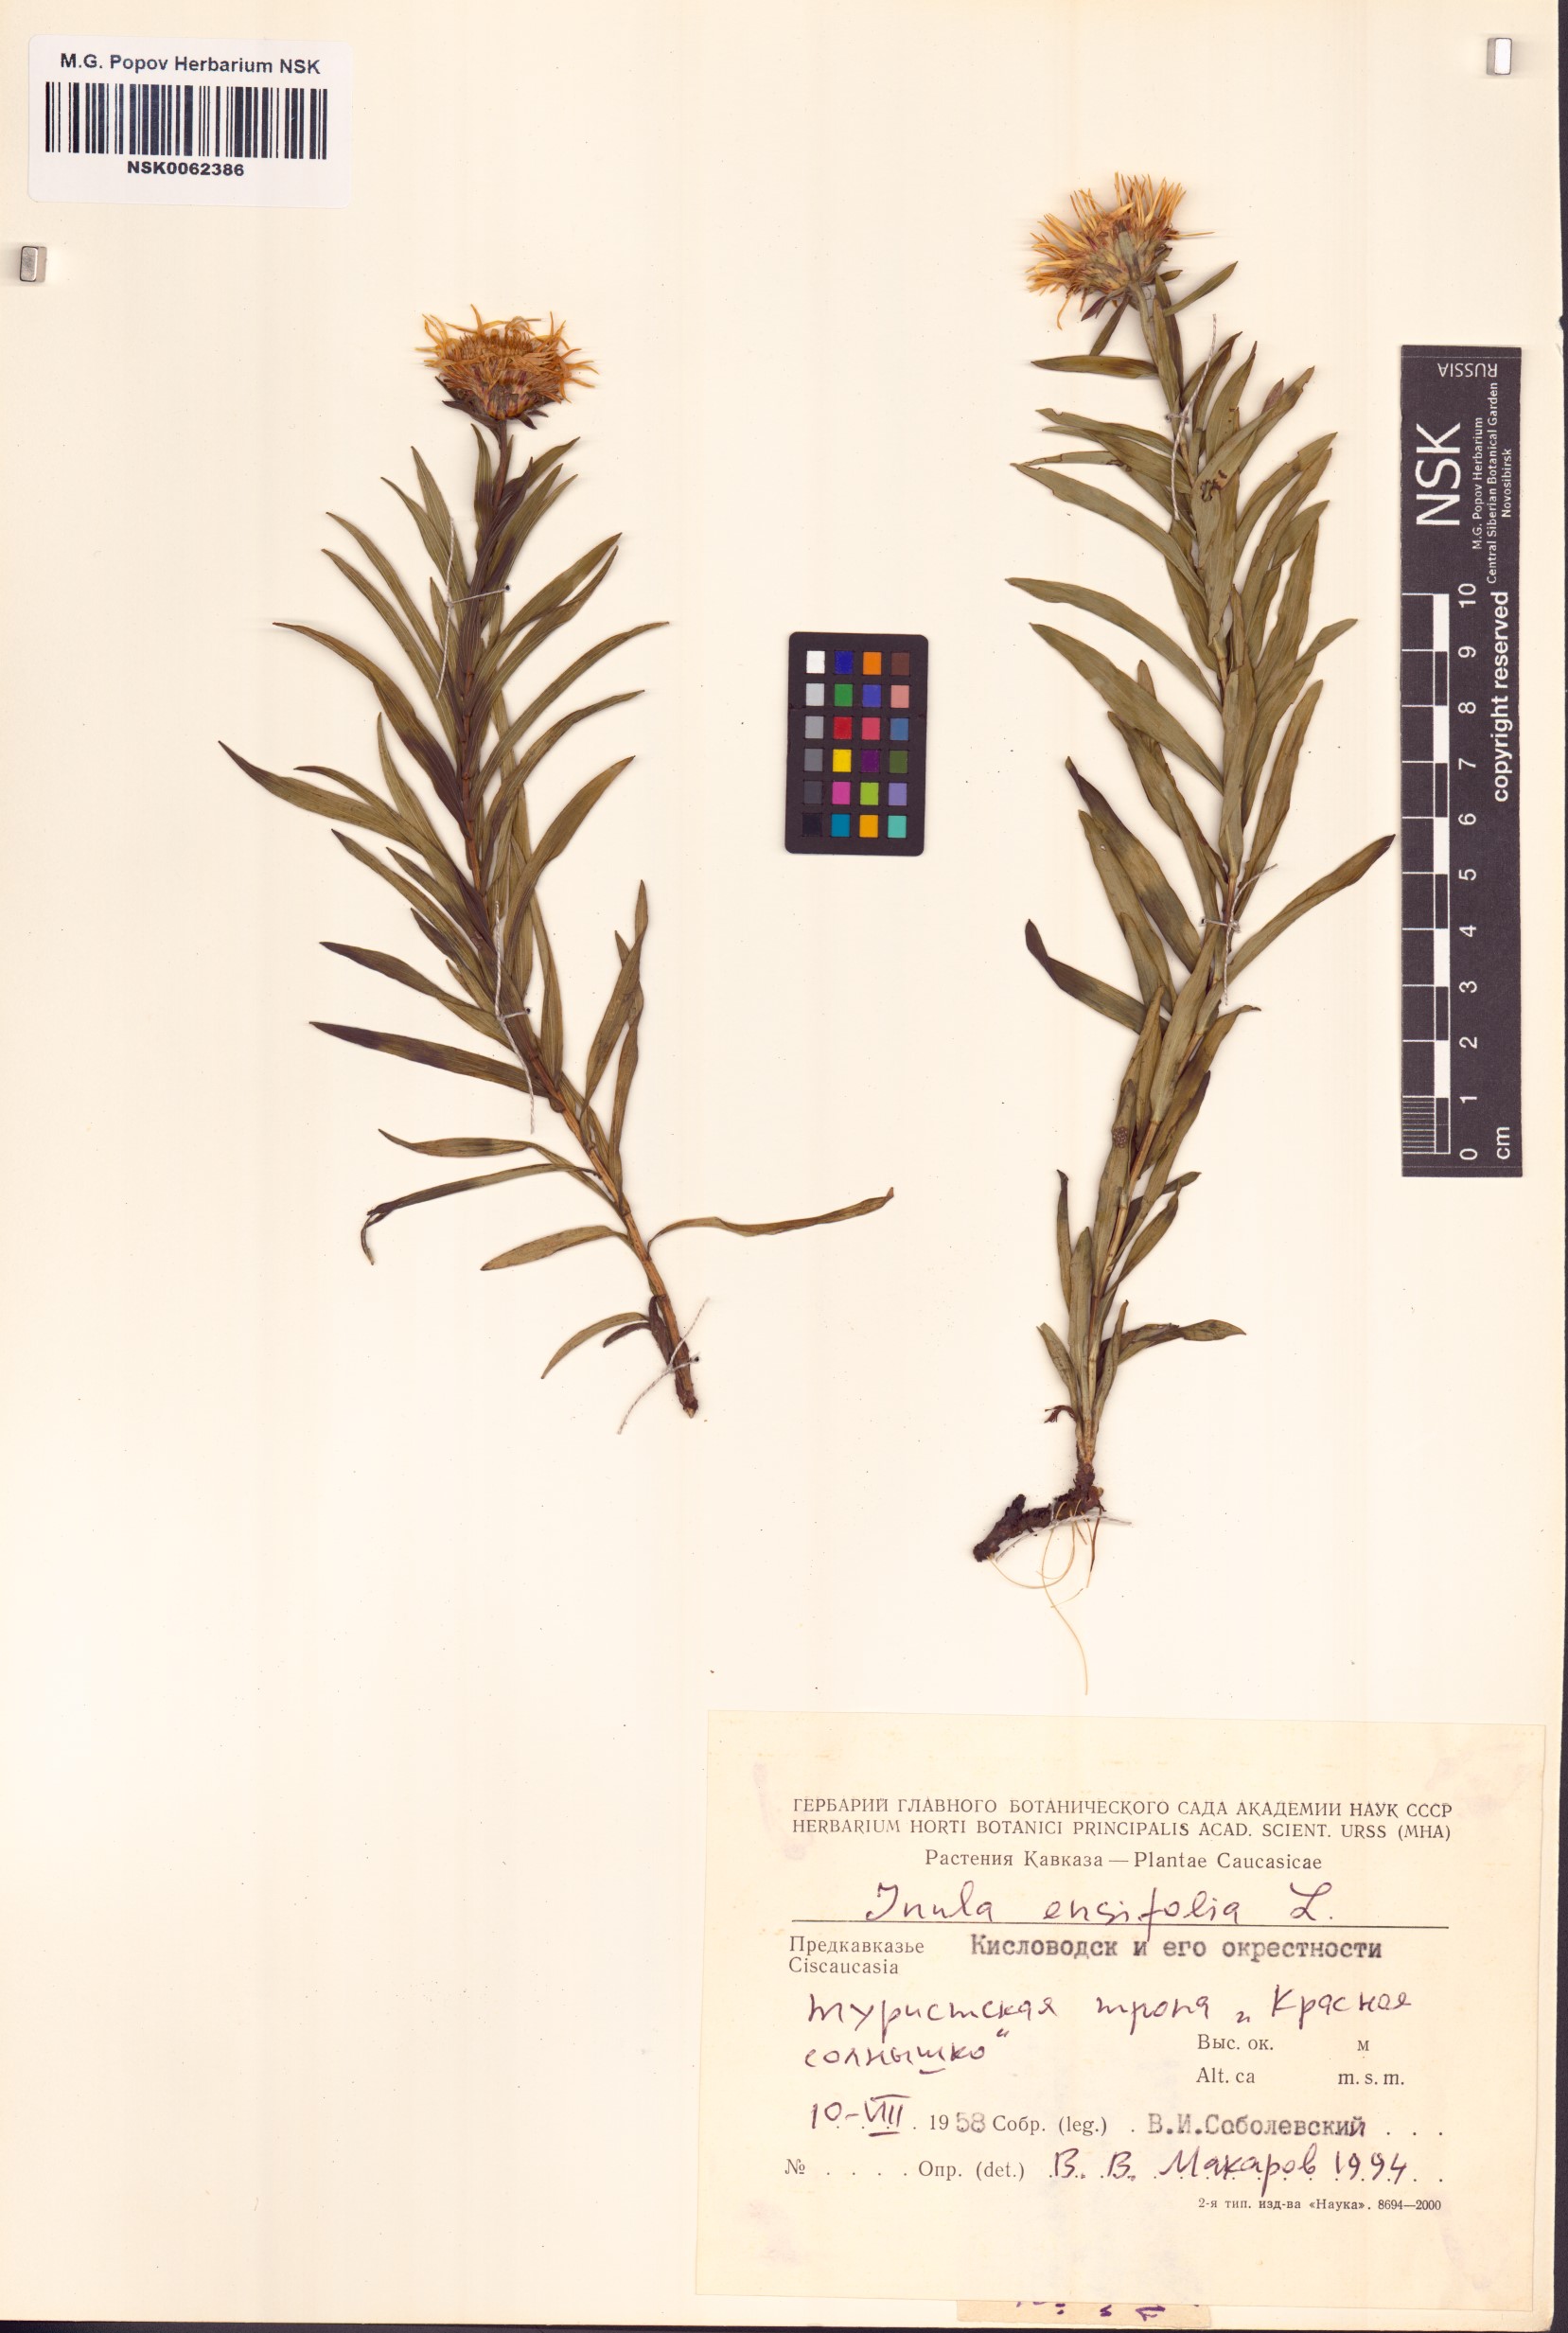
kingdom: Plantae
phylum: Tracheophyta
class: Magnoliopsida
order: Asterales
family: Asteraceae
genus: Pentanema
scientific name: Pentanema ensifolium
